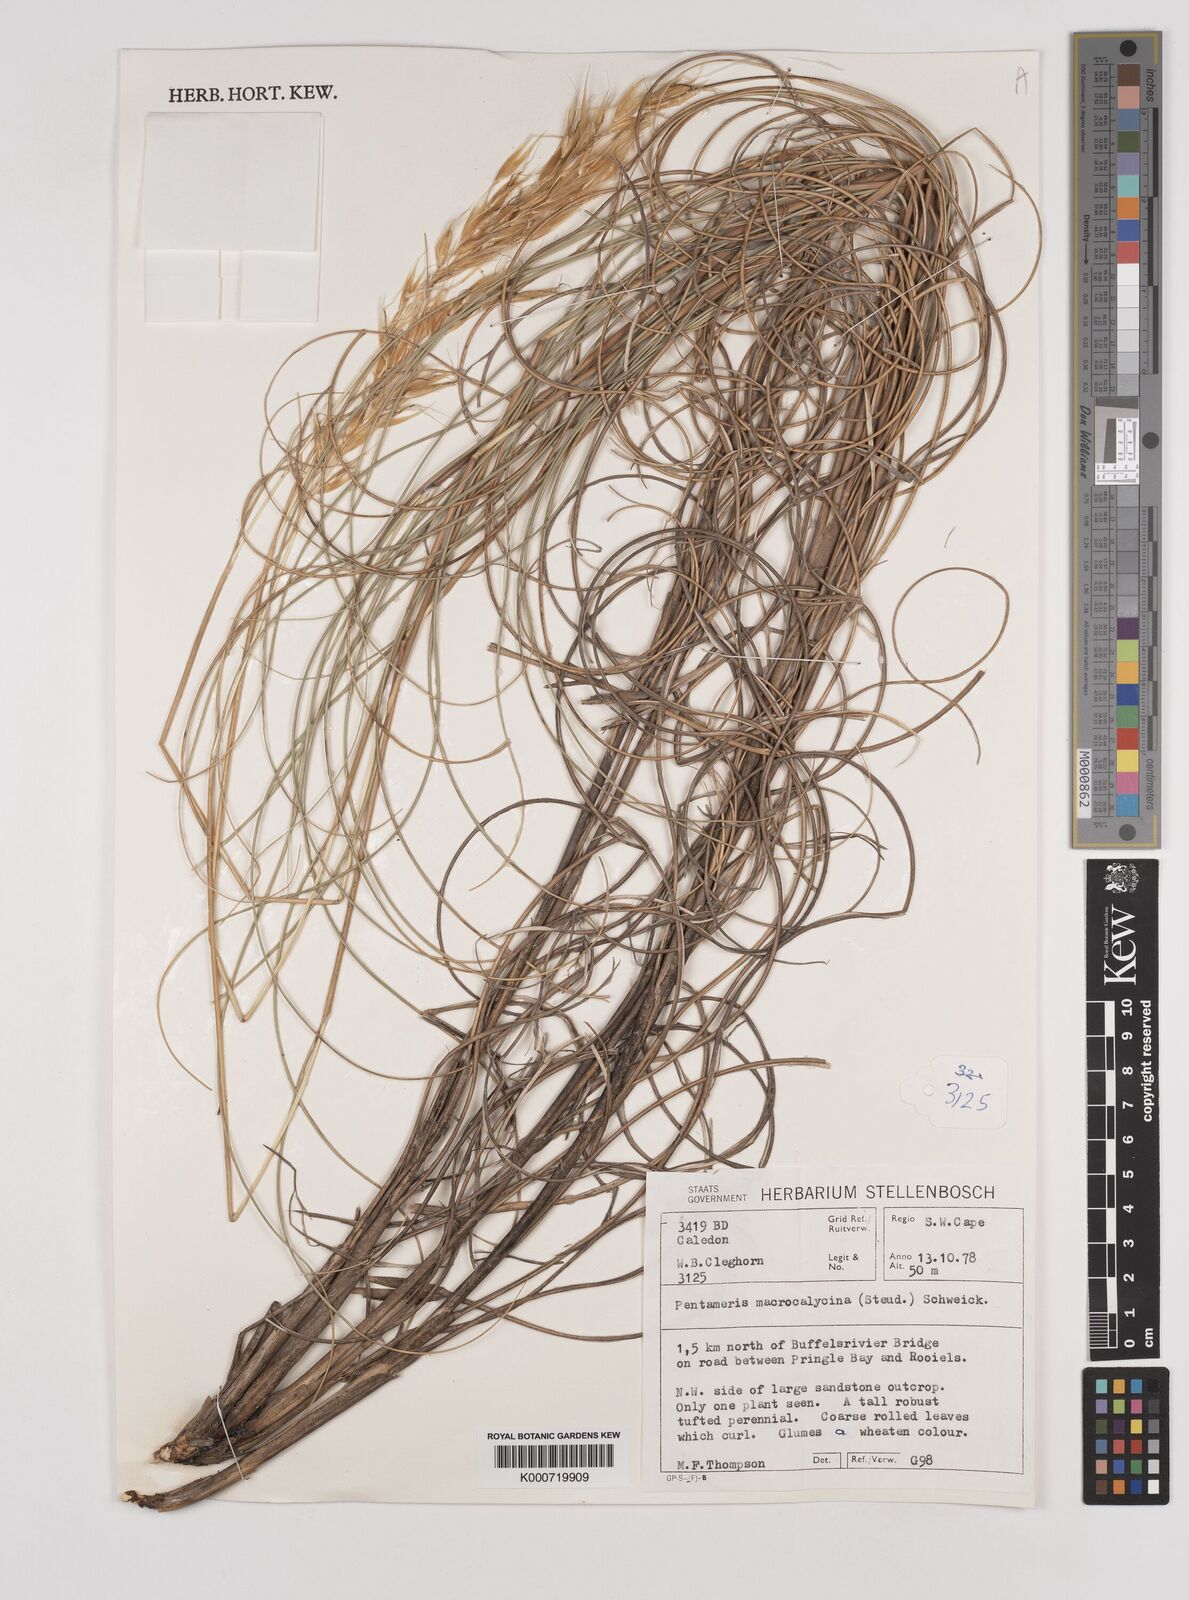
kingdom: Plantae
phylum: Tracheophyta
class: Liliopsida
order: Poales
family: Poaceae
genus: Pentameris
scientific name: Pentameris macrocalycina
